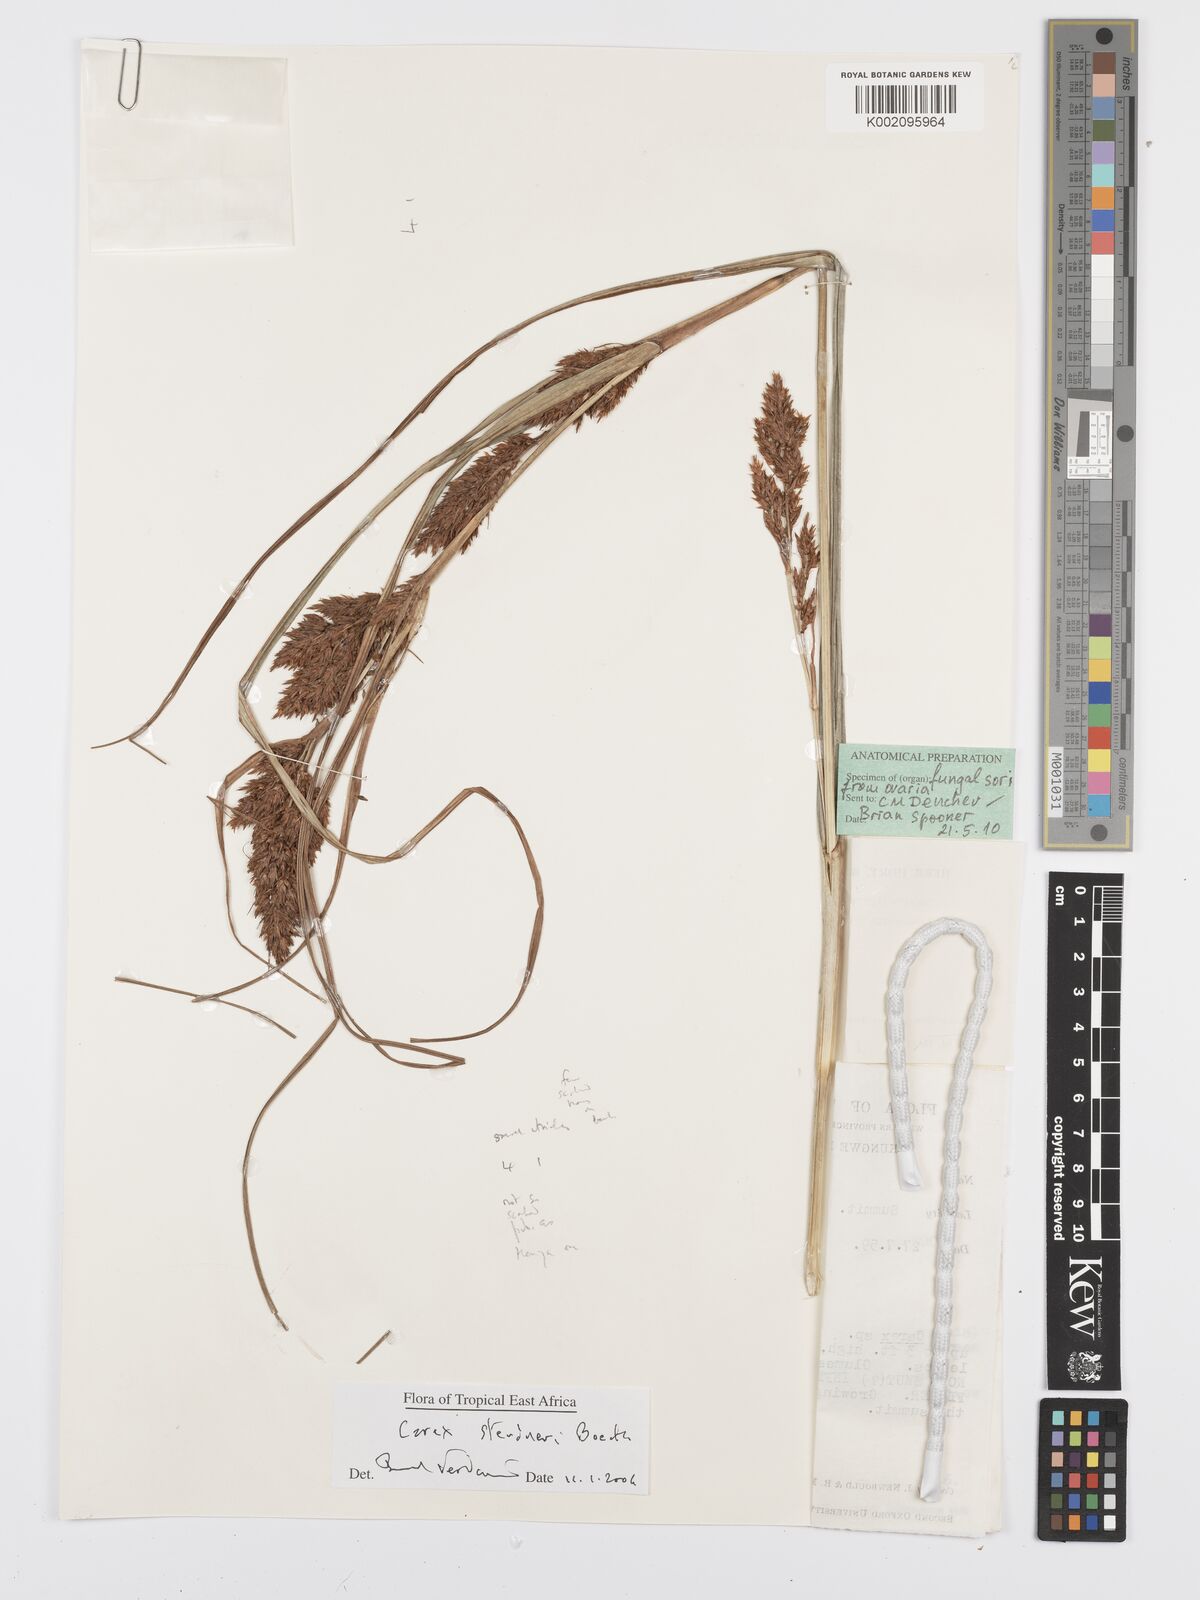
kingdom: Plantae
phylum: Tracheophyta
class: Liliopsida
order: Poales
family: Cyperaceae
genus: Carex
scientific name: Carex steudneri
